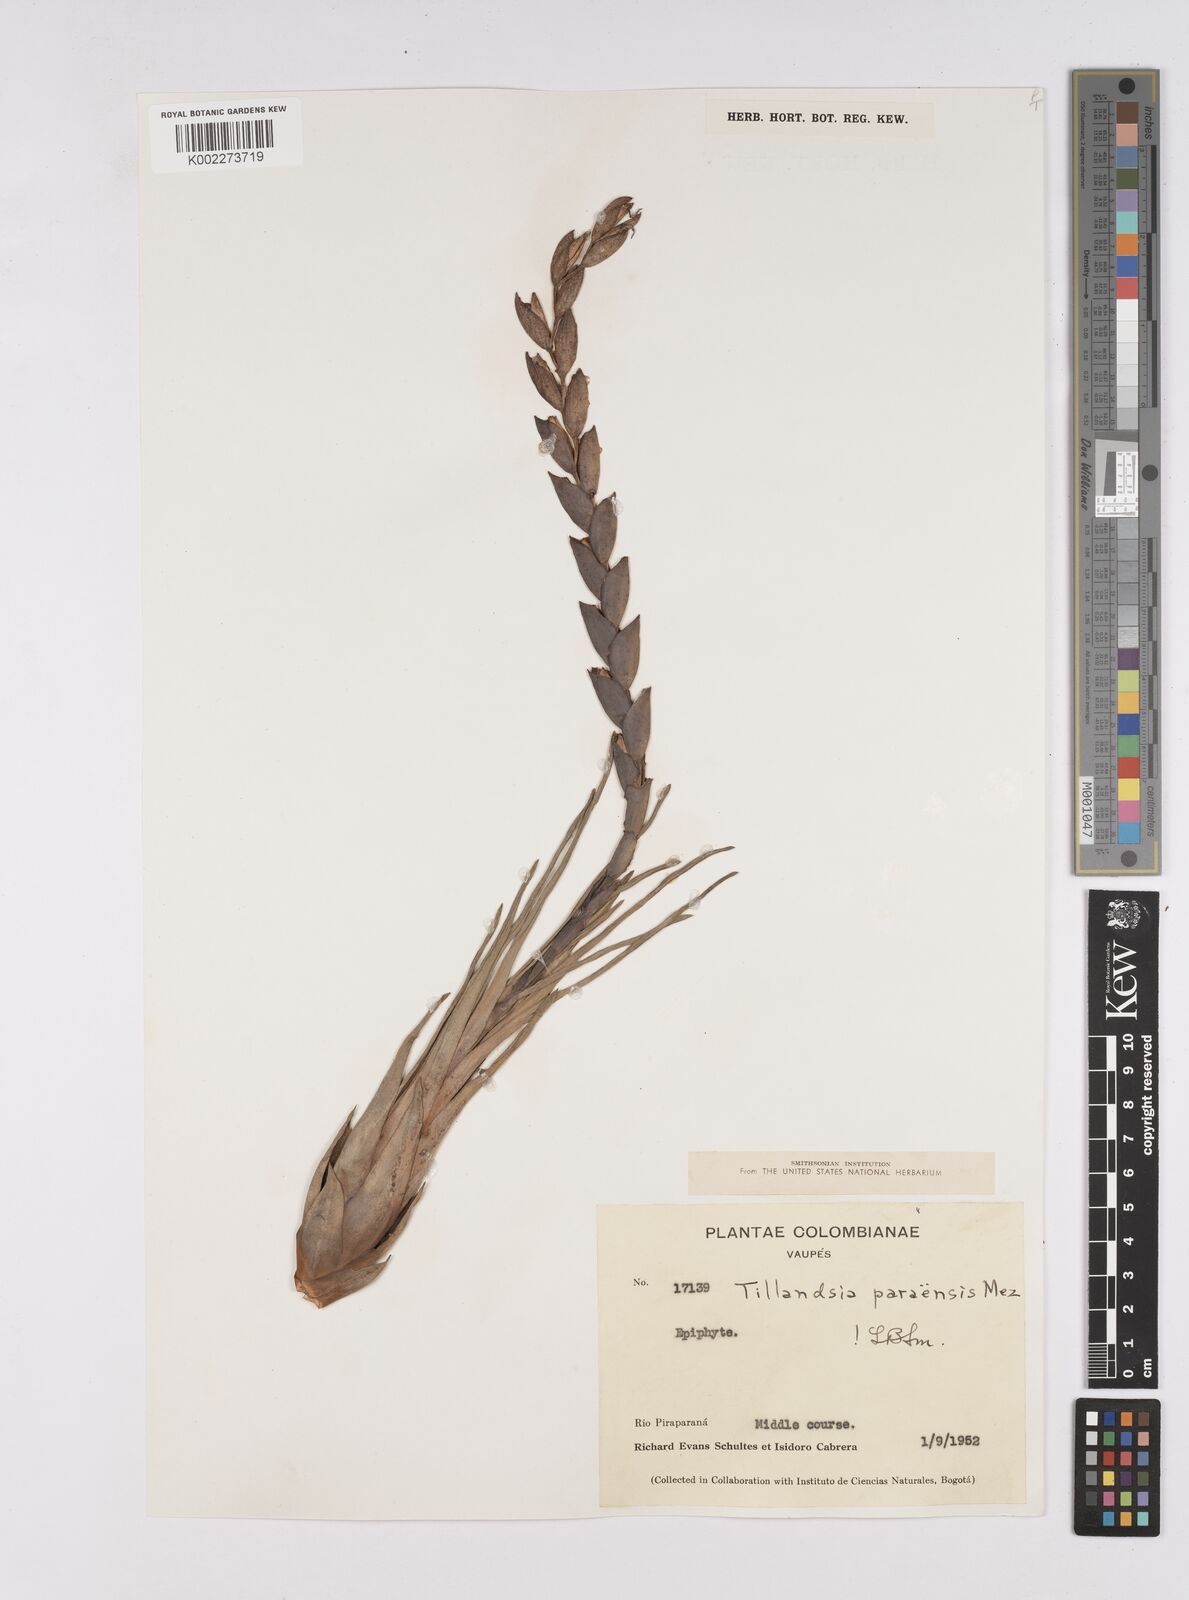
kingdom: Plantae
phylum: Tracheophyta
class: Liliopsida
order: Poales
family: Bromeliaceae
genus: Tillandsia
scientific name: Tillandsia paraensis
